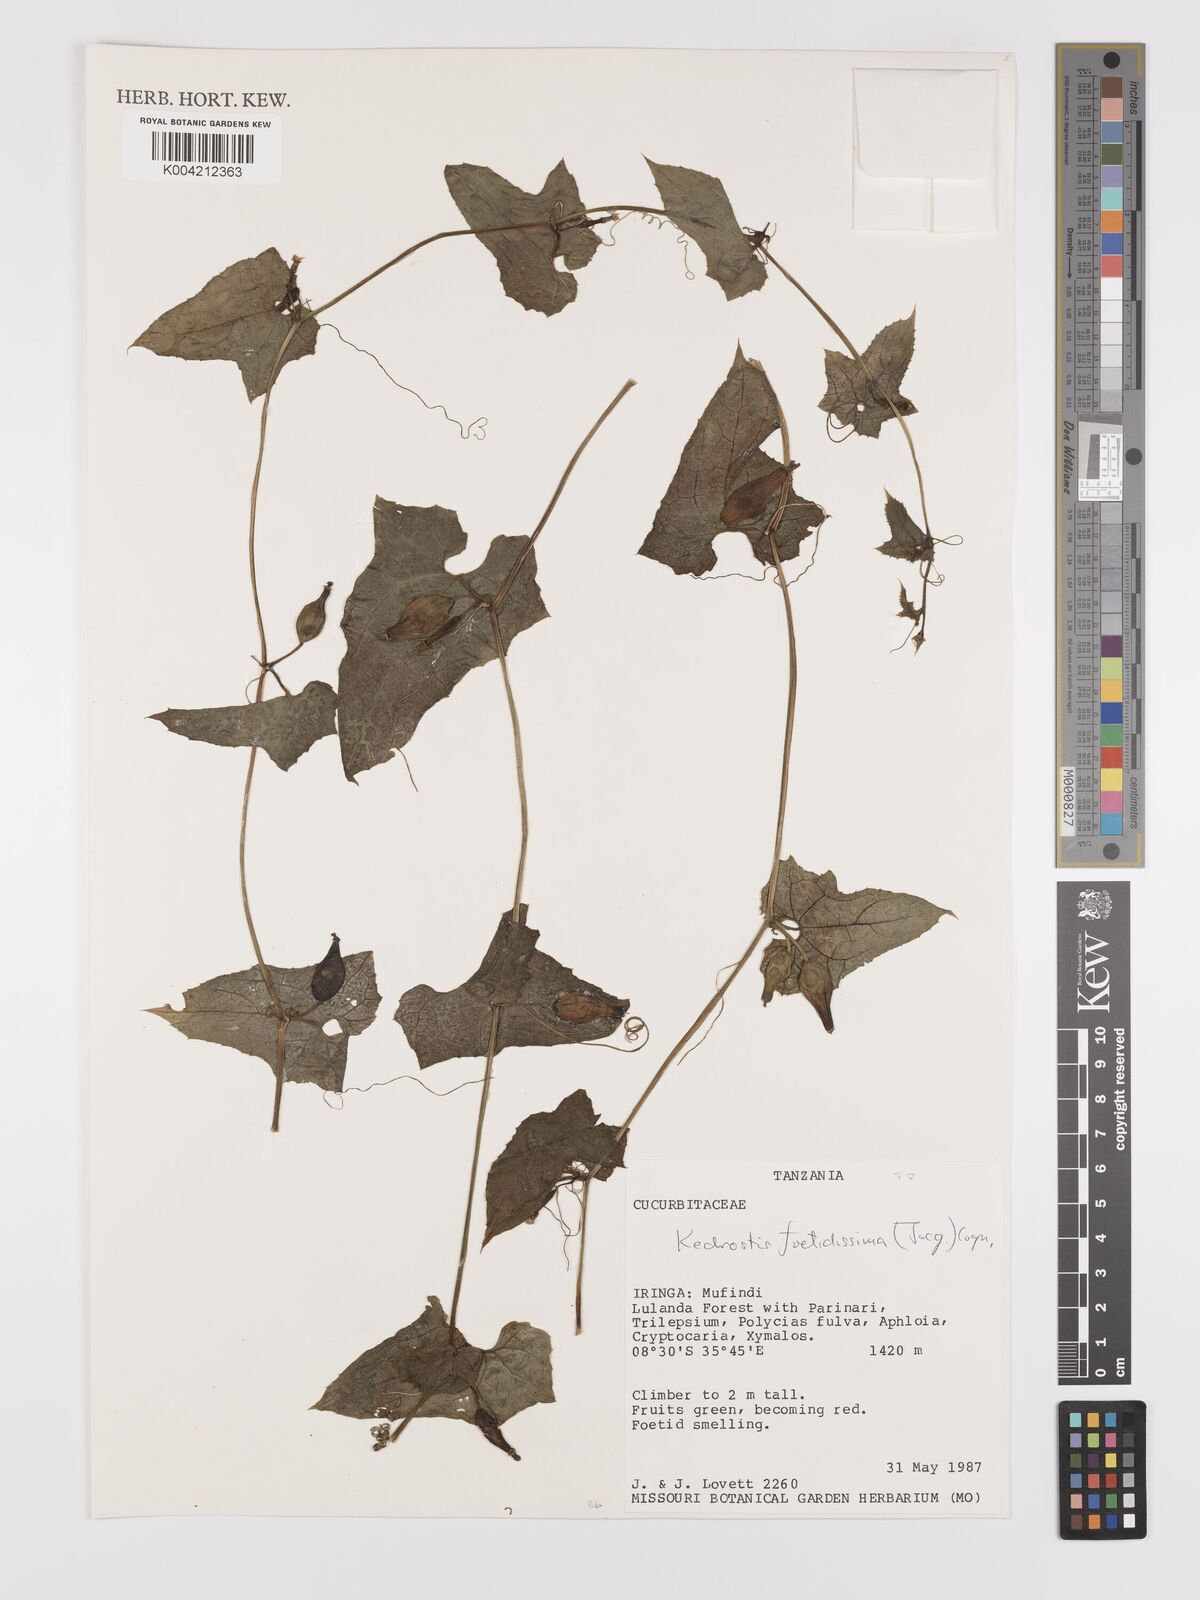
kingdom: Plantae
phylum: Tracheophyta
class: Magnoliopsida
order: Cucurbitales
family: Cucurbitaceae
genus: Kedrostis
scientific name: Kedrostis foetidissima
